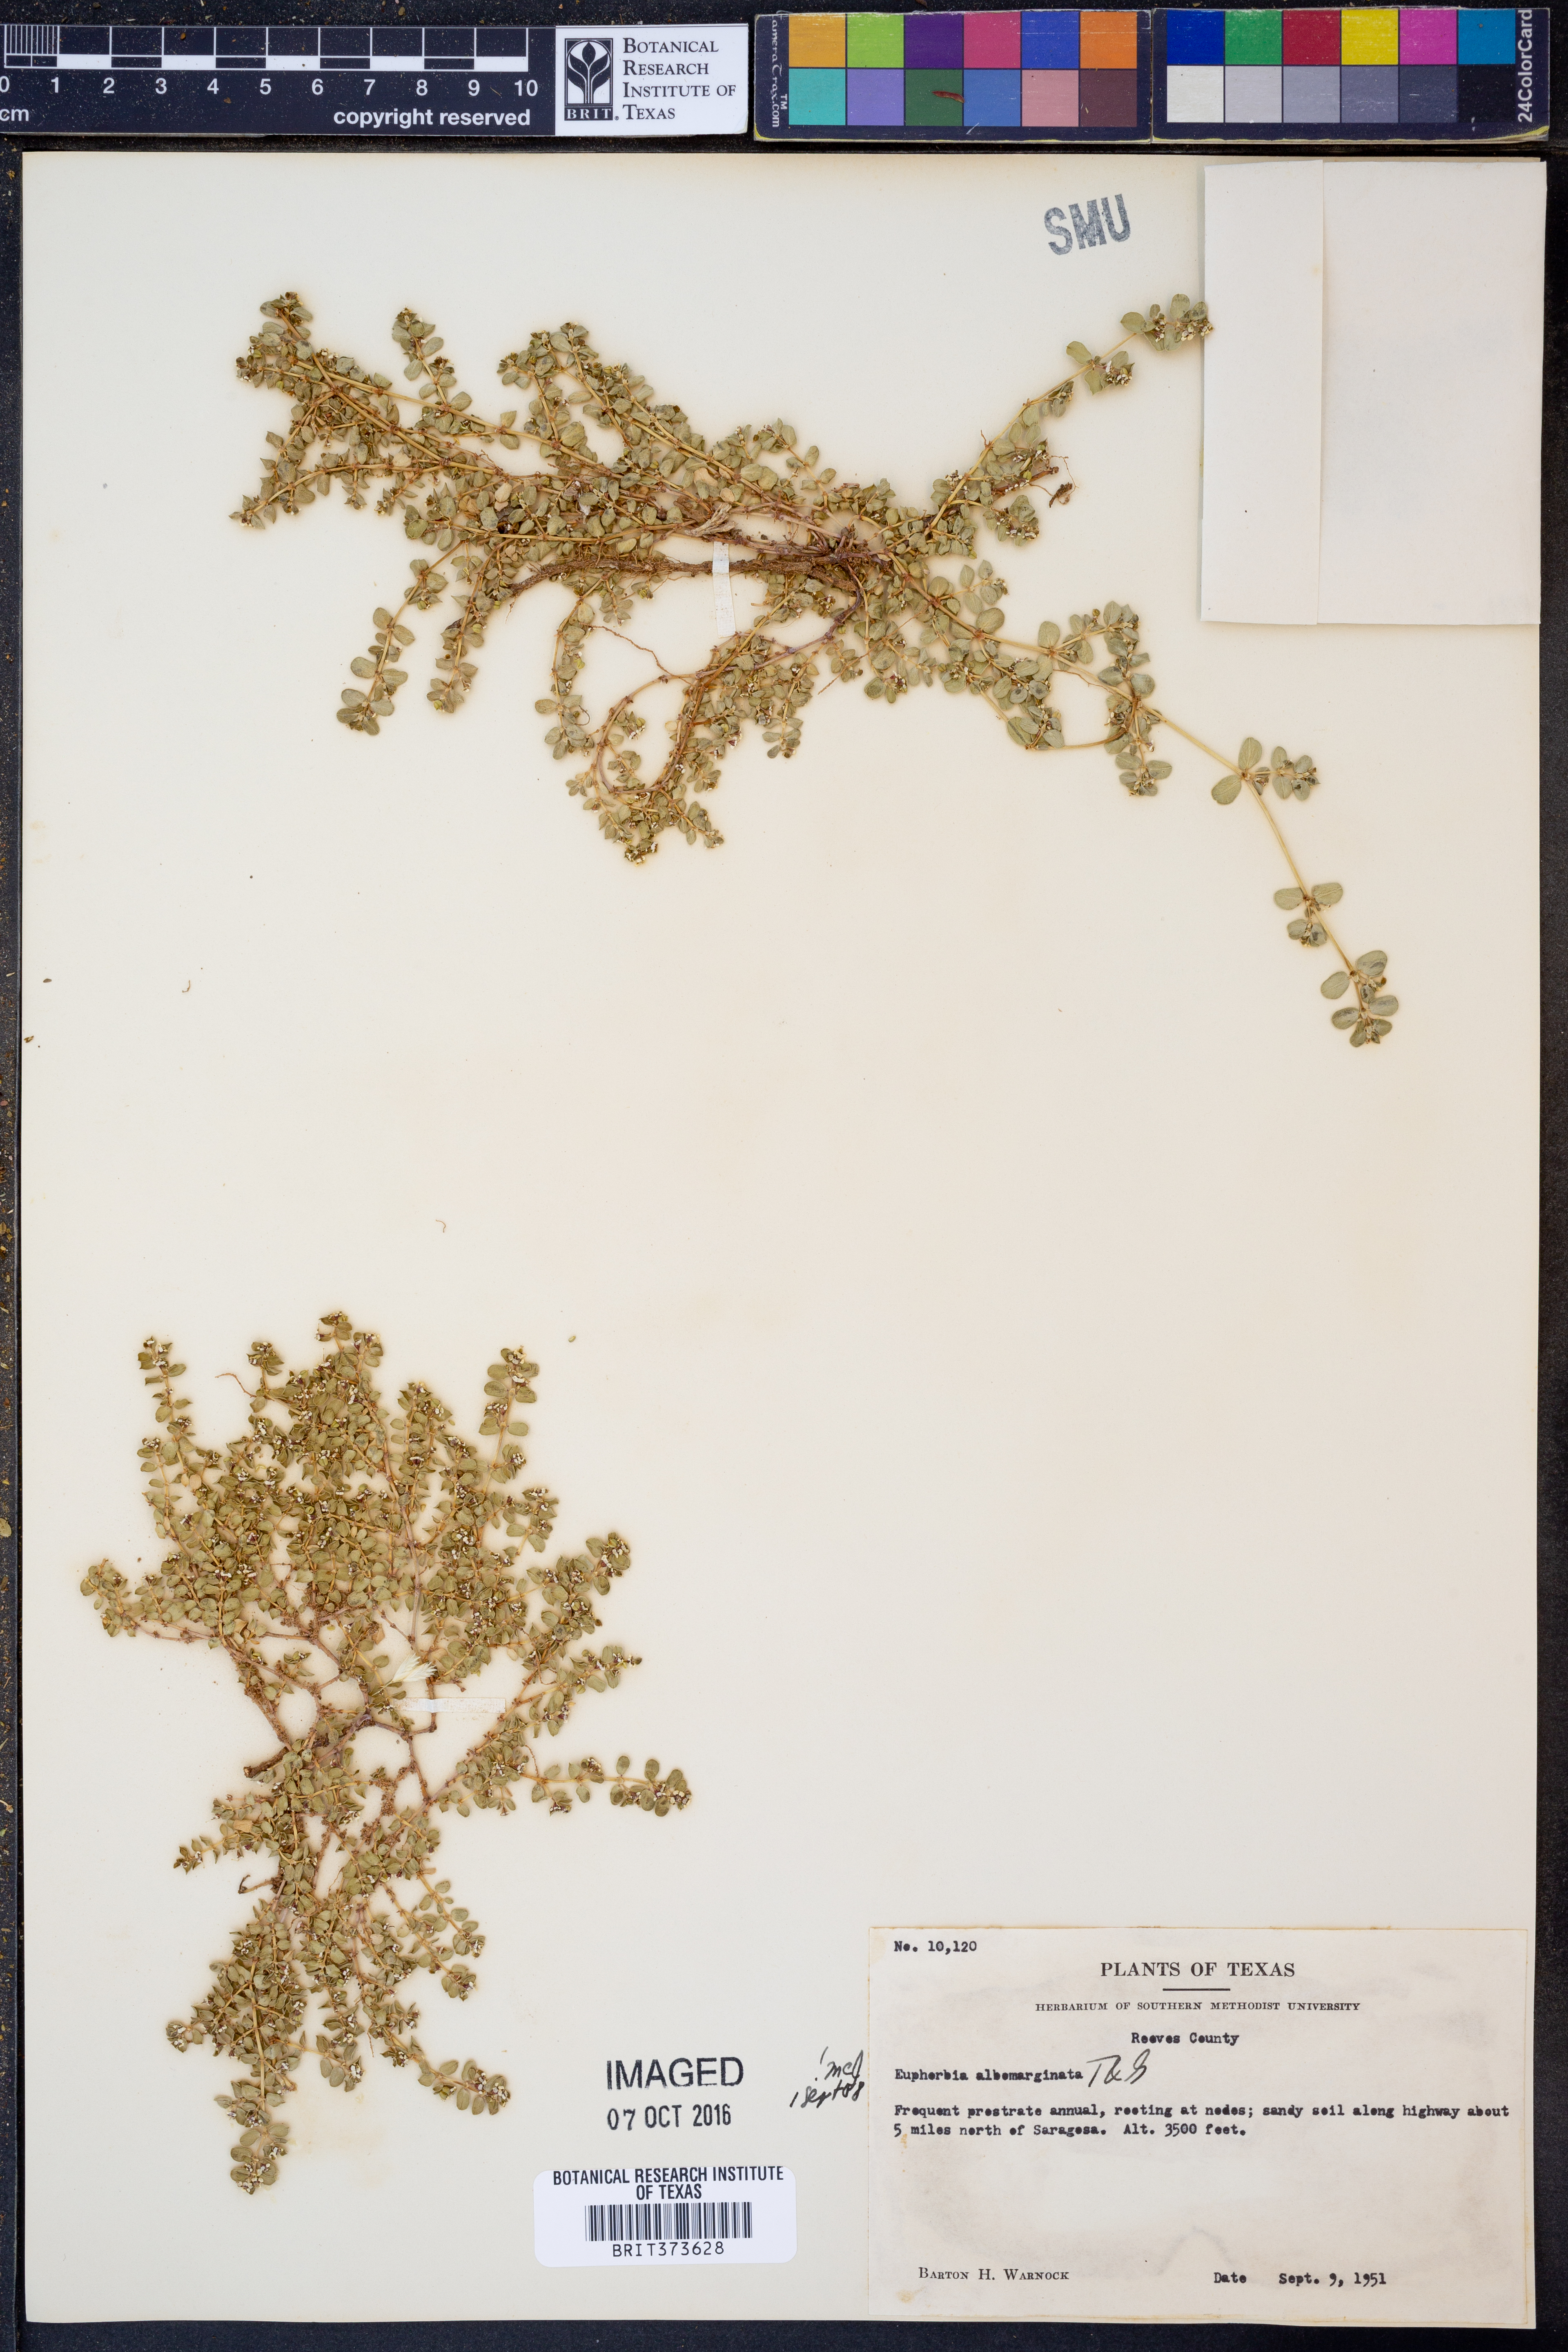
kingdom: Plantae
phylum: Tracheophyta
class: Magnoliopsida
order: Malpighiales
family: Euphorbiaceae
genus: Euphorbia
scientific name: Euphorbia albomarginata
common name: Whitemargin sandmat
